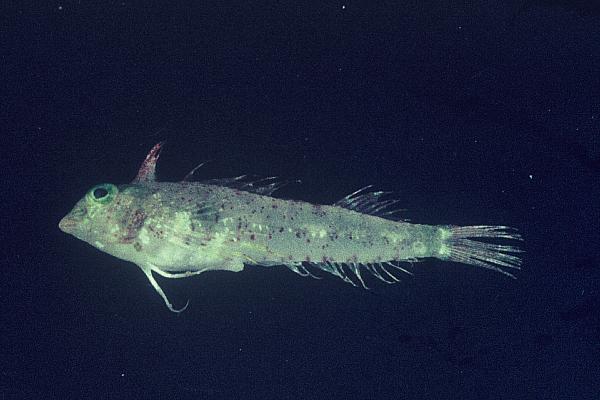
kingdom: Animalia
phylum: Chordata
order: Perciformes
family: Tripterygiidae
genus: Enneapterygius
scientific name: Enneapterygius pusillus
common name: Highcrest triplefin
